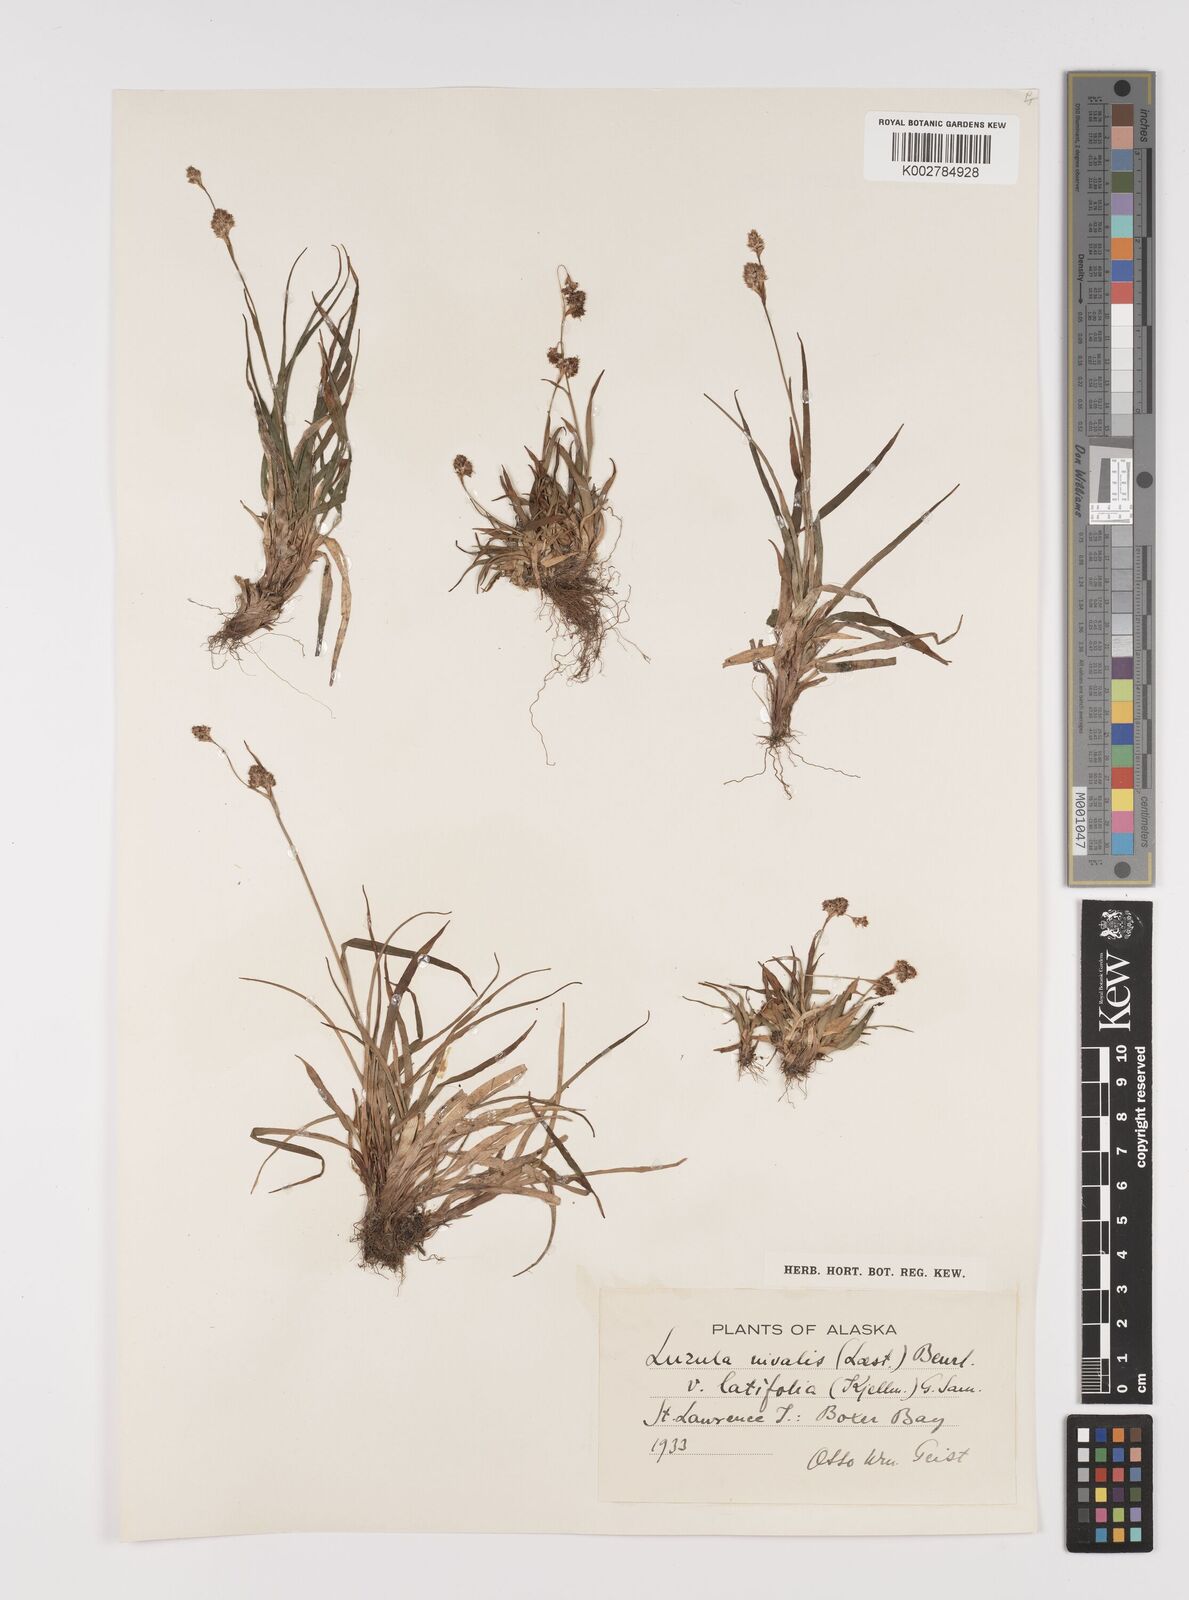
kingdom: Plantae
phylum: Tracheophyta
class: Liliopsida
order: Poales
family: Juncaceae
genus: Luzula
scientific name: Luzula nivalis
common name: Arctic woodrush
